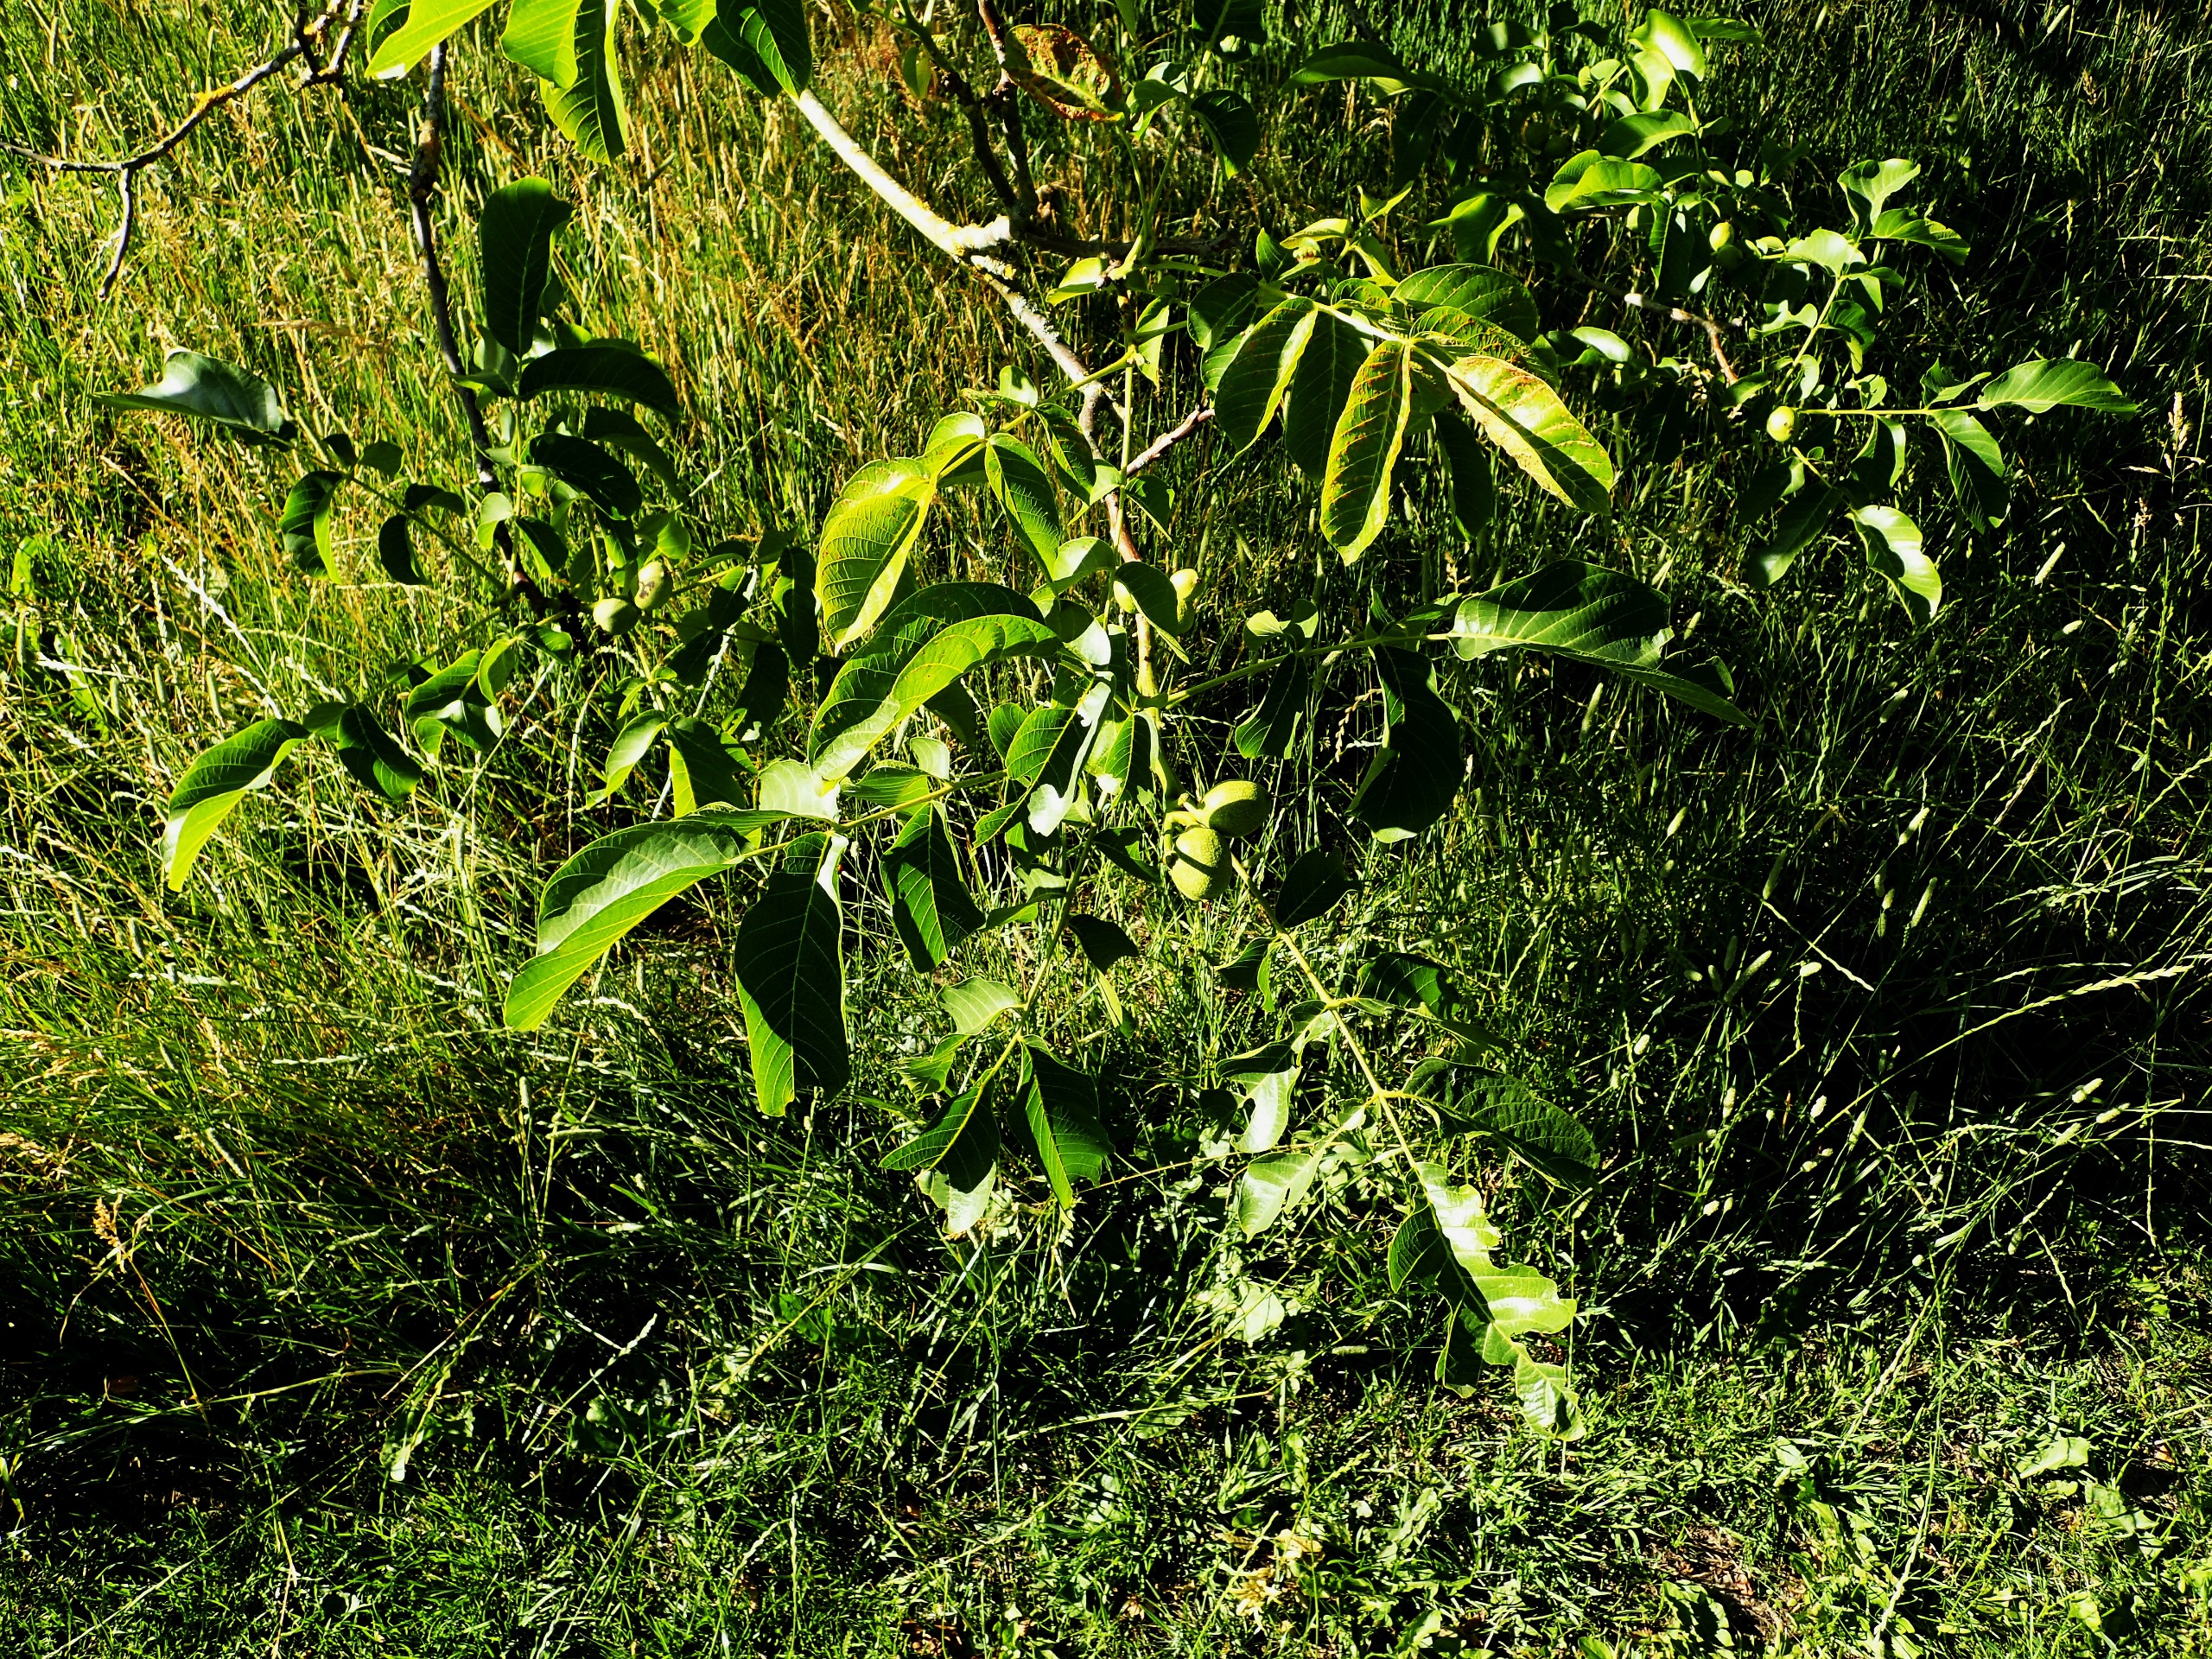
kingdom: Plantae
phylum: Tracheophyta
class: Magnoliopsida
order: Fagales
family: Juglandaceae
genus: Juglans
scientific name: Juglans regia
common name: Almindelig valnød
